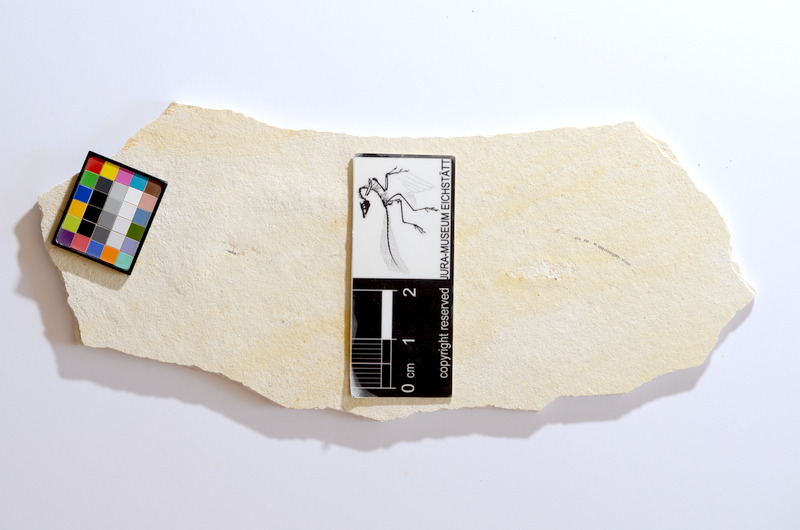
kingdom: Animalia
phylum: Chordata
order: Salmoniformes
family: Orthogonikleithridae
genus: Orthogonikleithrus
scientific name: Orthogonikleithrus hoelli
